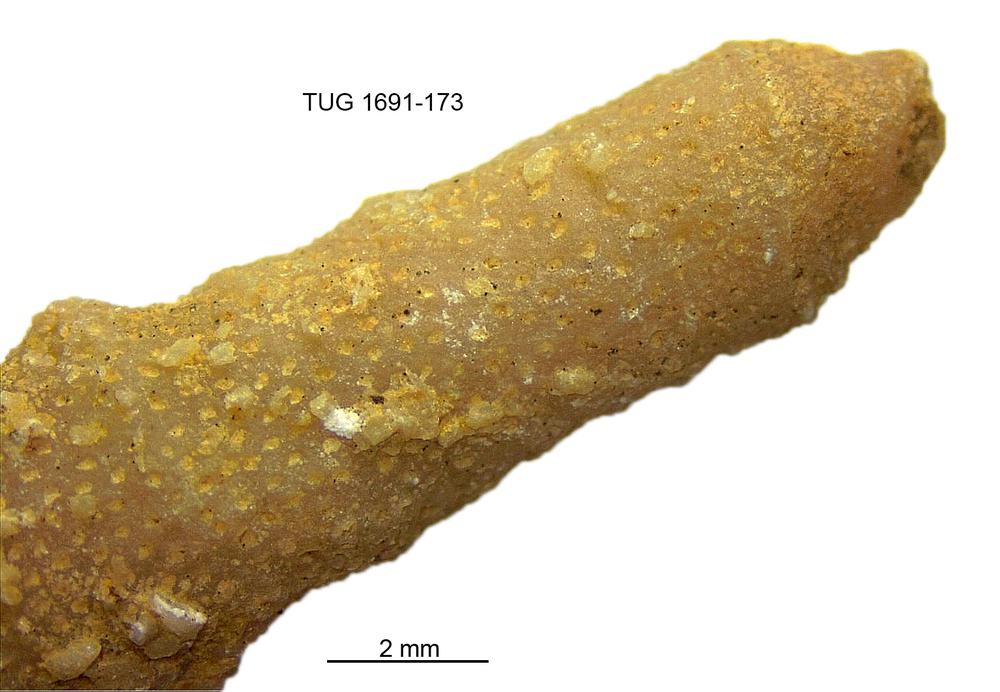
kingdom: Animalia
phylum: Bryozoa
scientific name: Bryozoa
